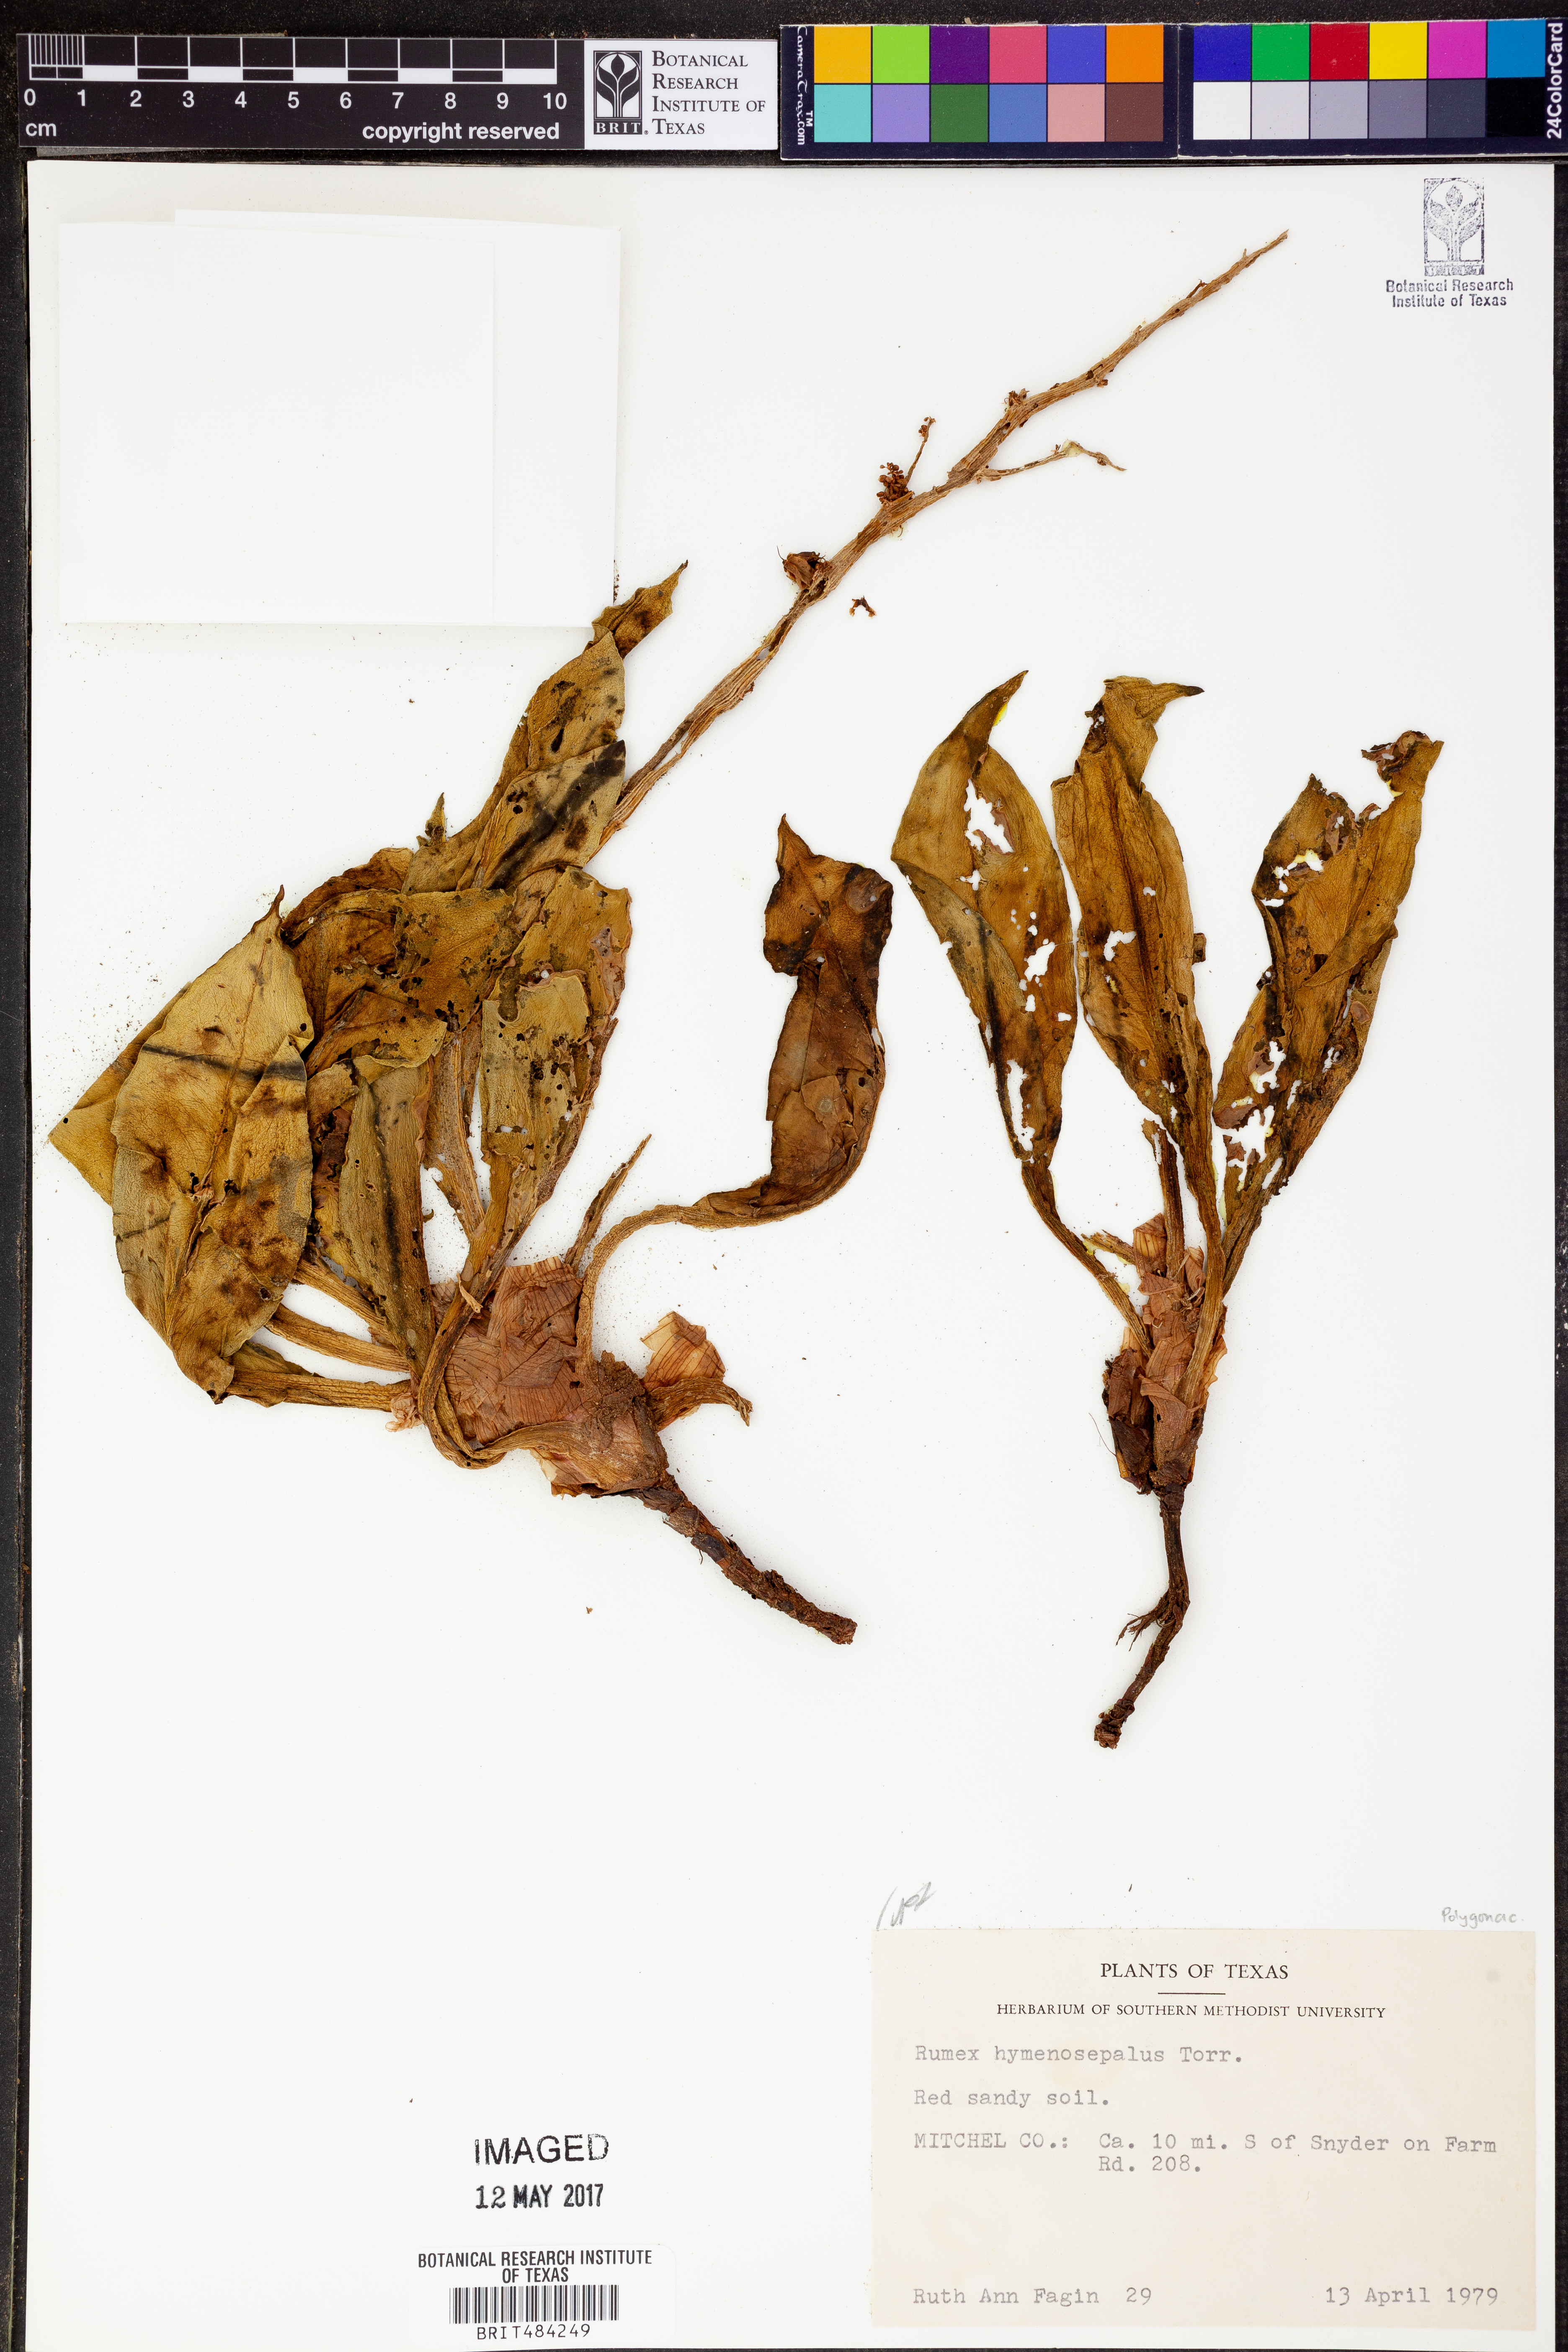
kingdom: Plantae
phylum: Tracheophyta
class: Magnoliopsida
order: Caryophyllales
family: Polygonaceae
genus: Rumex
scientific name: Rumex hymenosepalus
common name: Ganagra
